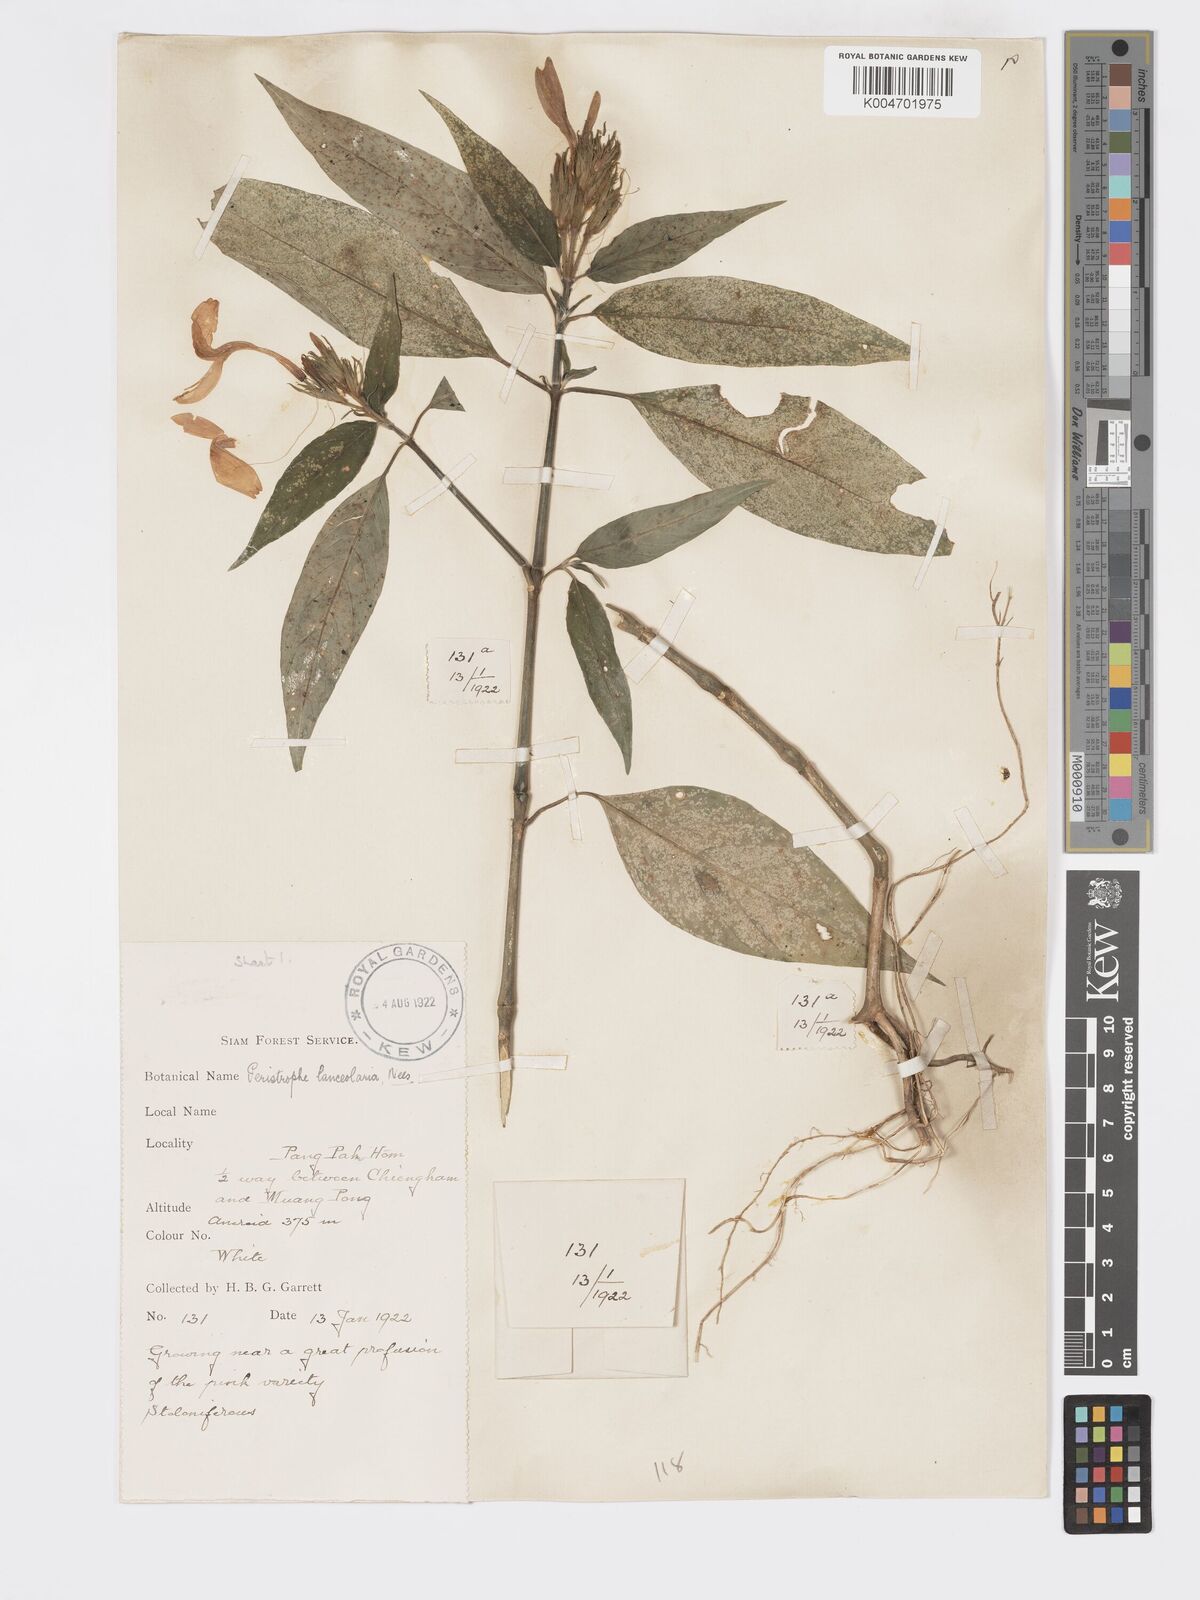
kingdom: Plantae
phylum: Tracheophyta
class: Magnoliopsida
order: Lamiales
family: Acanthaceae
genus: Dicliptera
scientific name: Dicliptera lanceolaria
